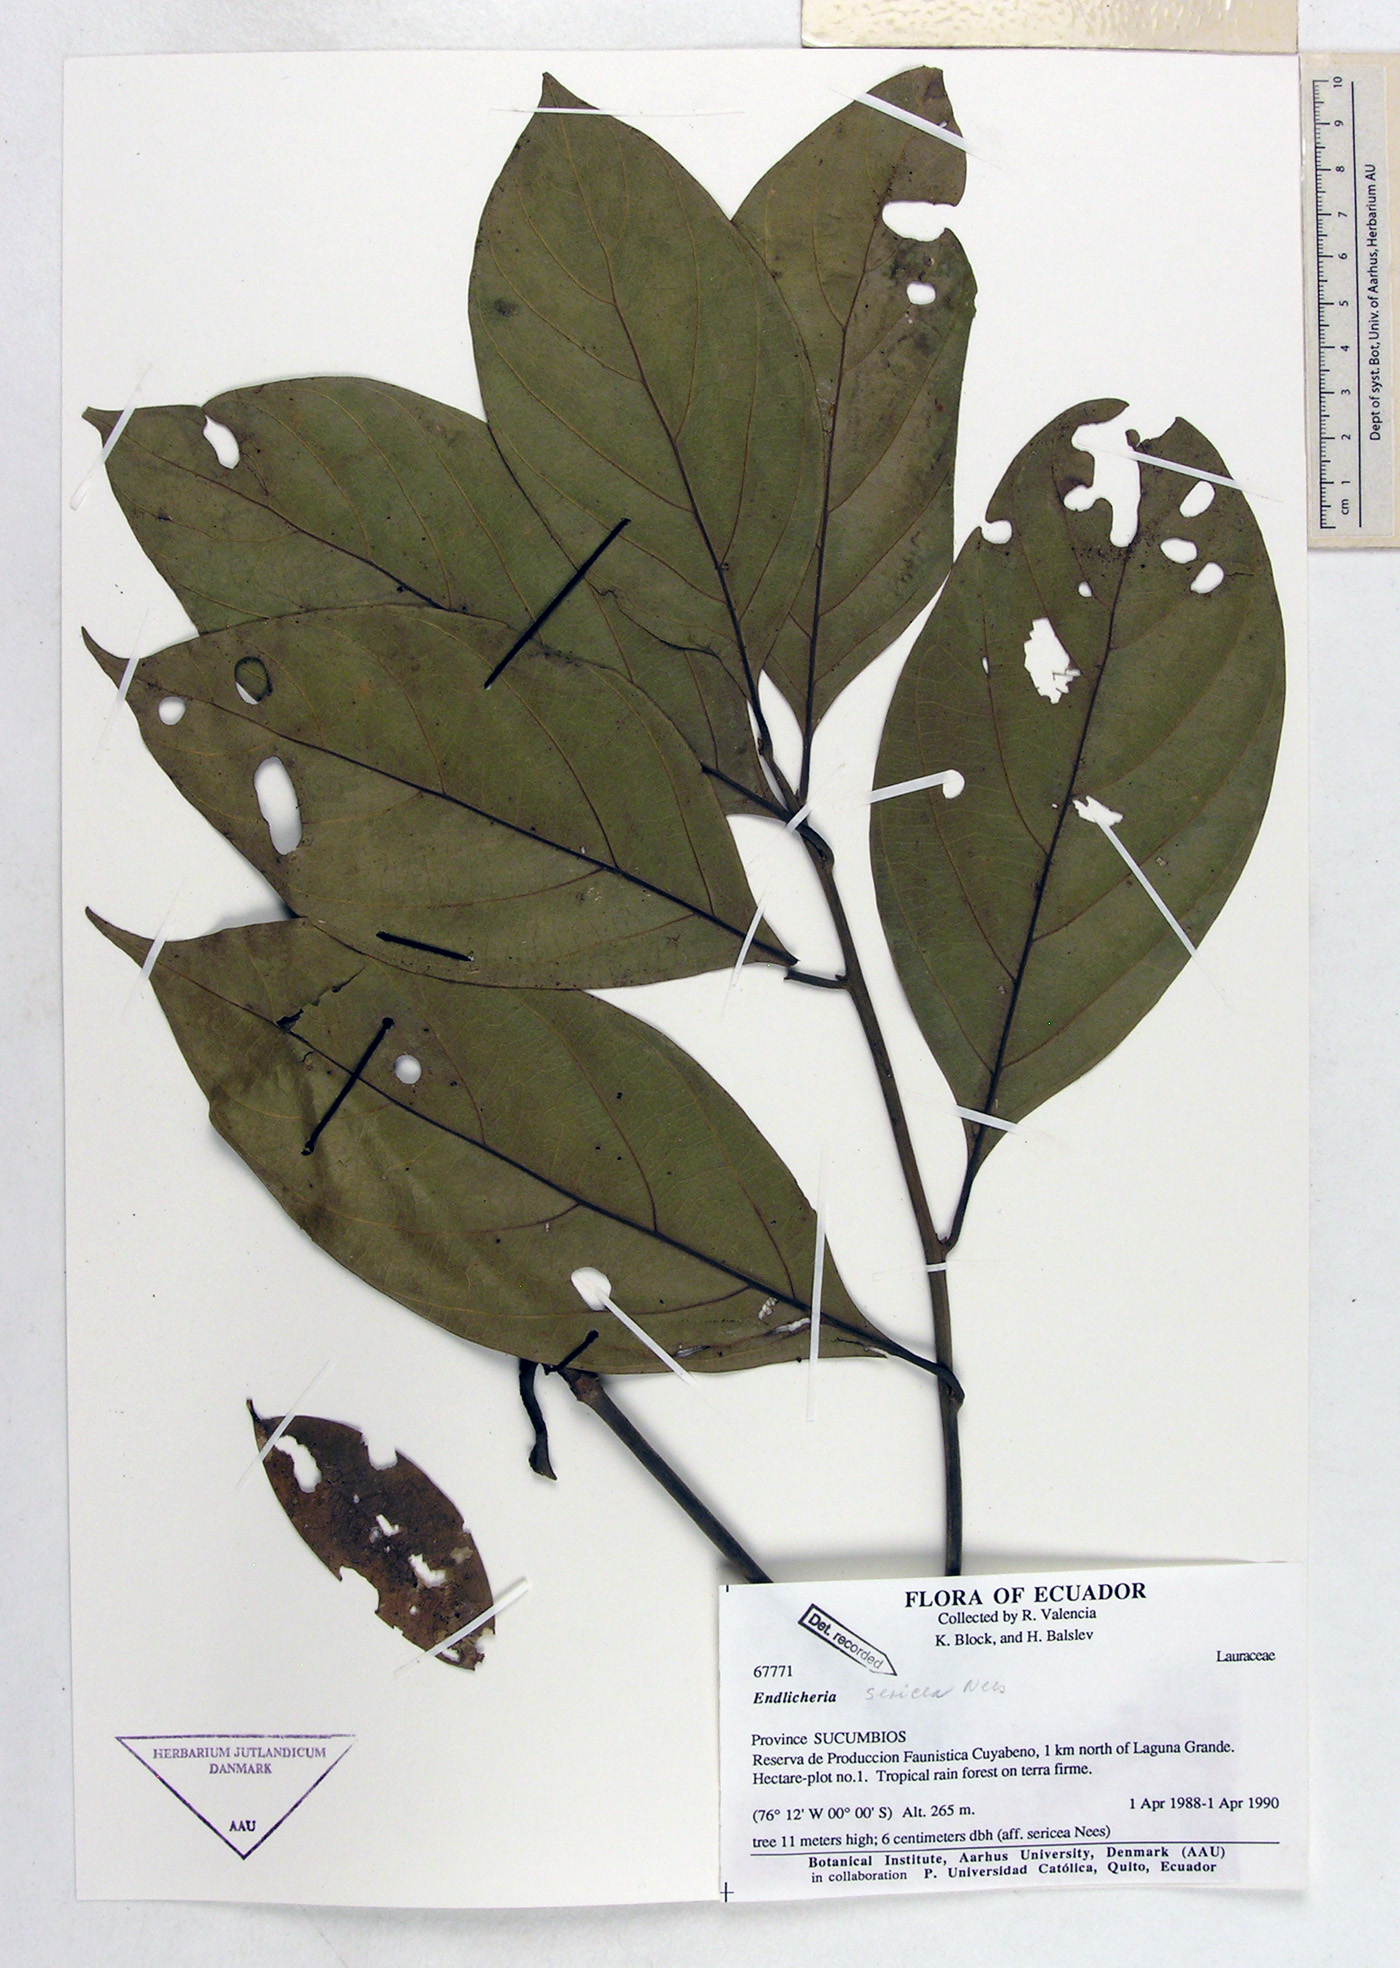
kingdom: Plantae
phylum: Tracheophyta
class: Magnoliopsida
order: Laurales
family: Lauraceae
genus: Endlicheria
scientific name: Endlicheria sericea
